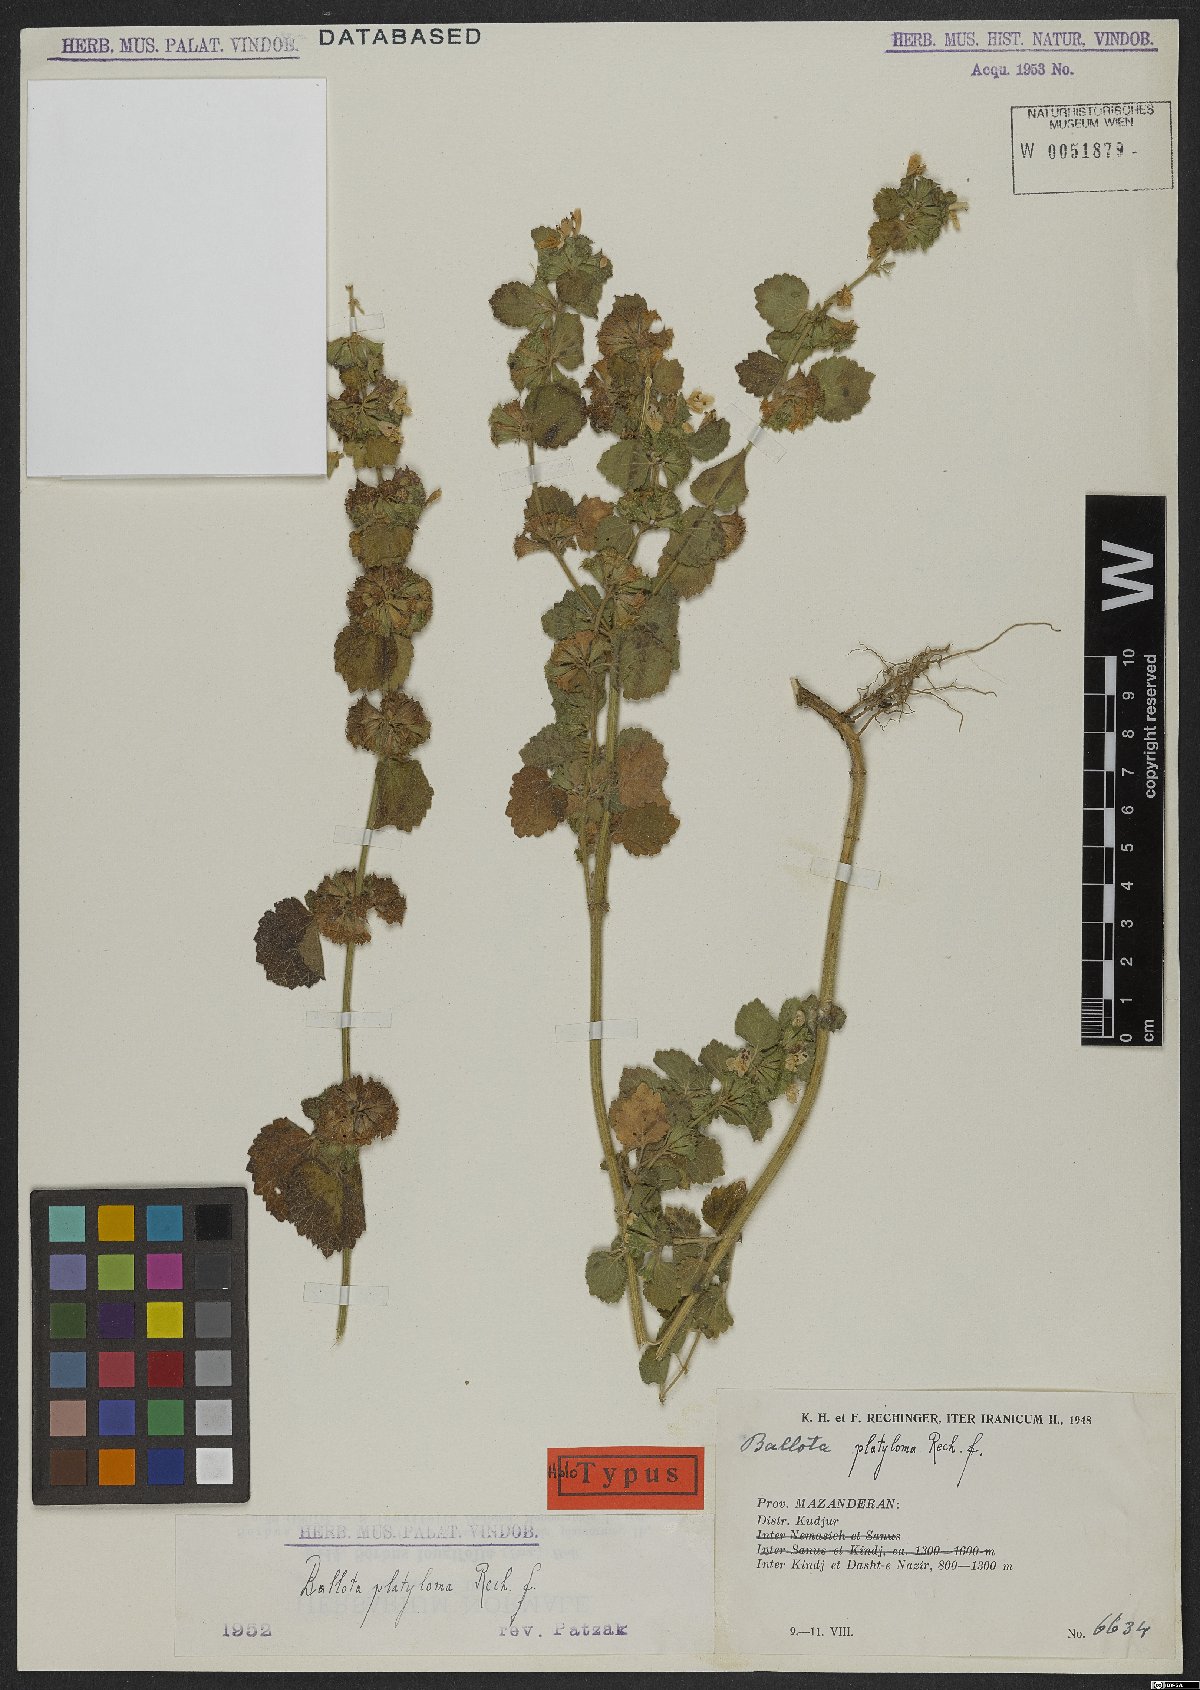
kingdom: Plantae
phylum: Tracheophyta
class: Magnoliopsida
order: Lamiales
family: Lamiaceae
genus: Ballota
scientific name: Ballota platyloma
